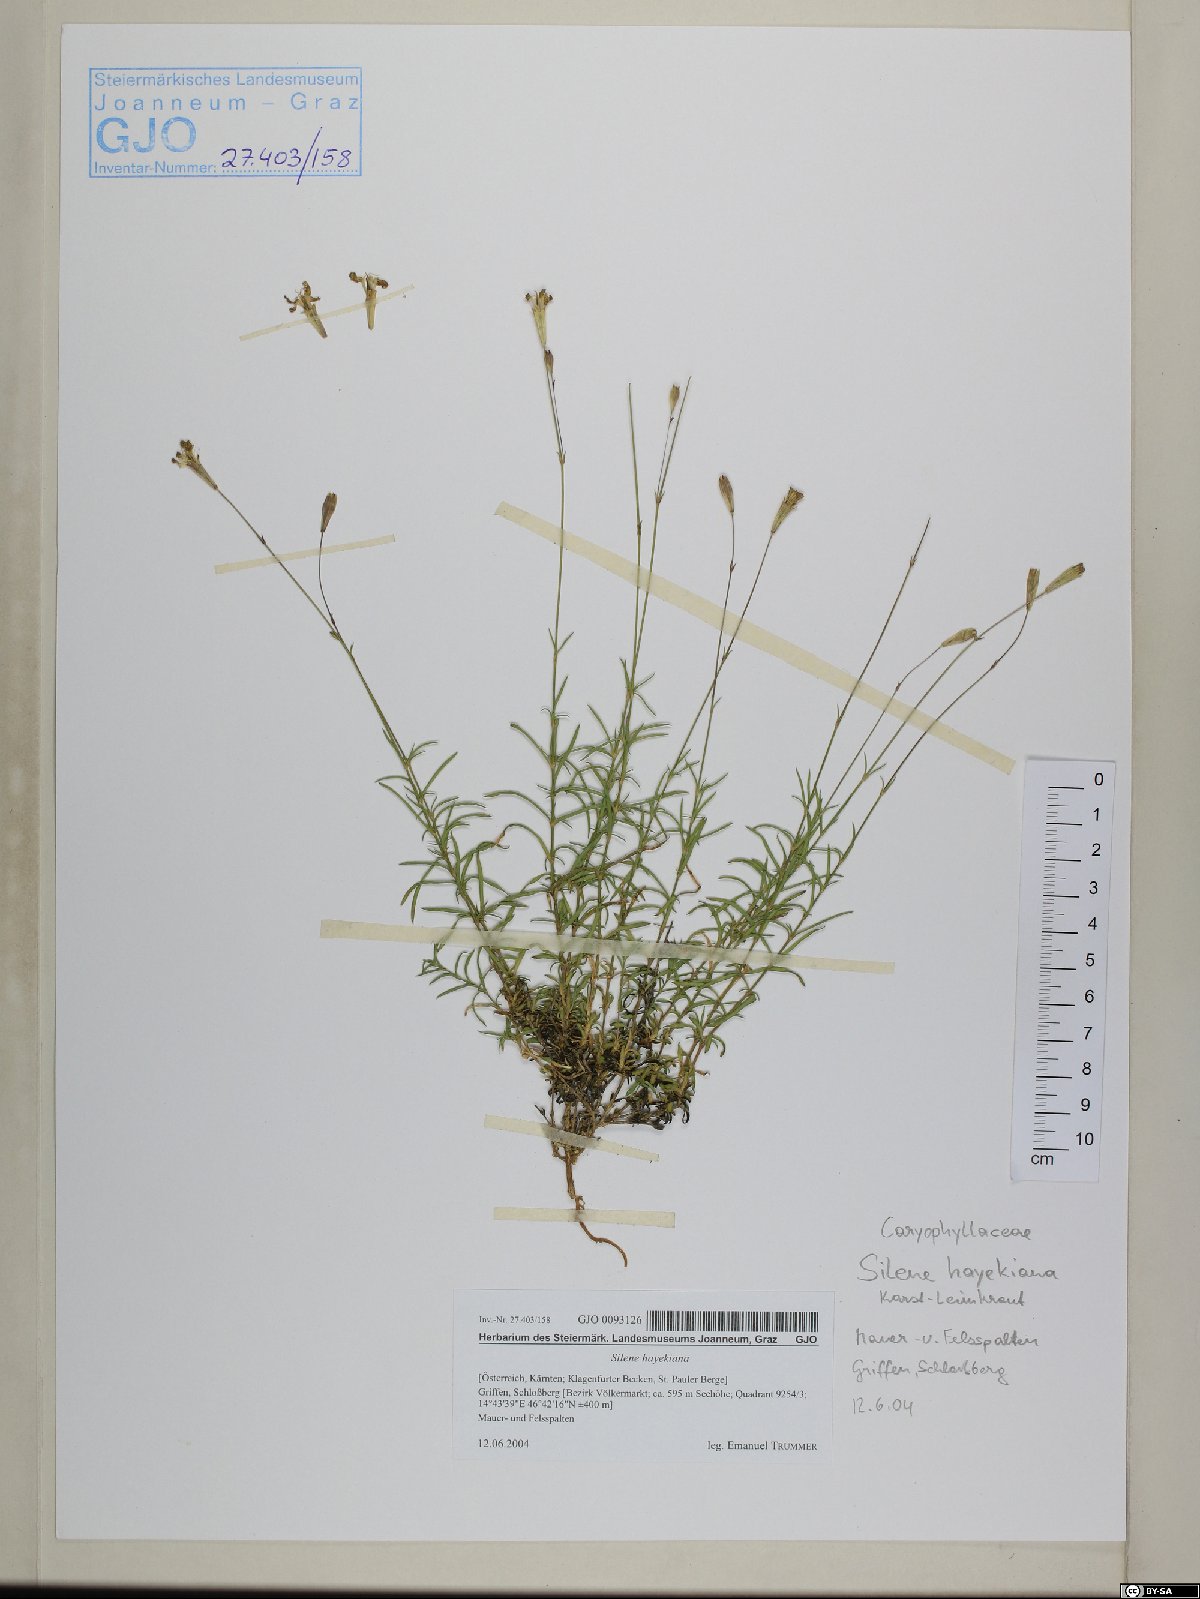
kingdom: Plantae
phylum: Tracheophyta
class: Magnoliopsida
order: Caryophyllales
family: Caryophyllaceae
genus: Silene
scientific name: Silene hayekiana
